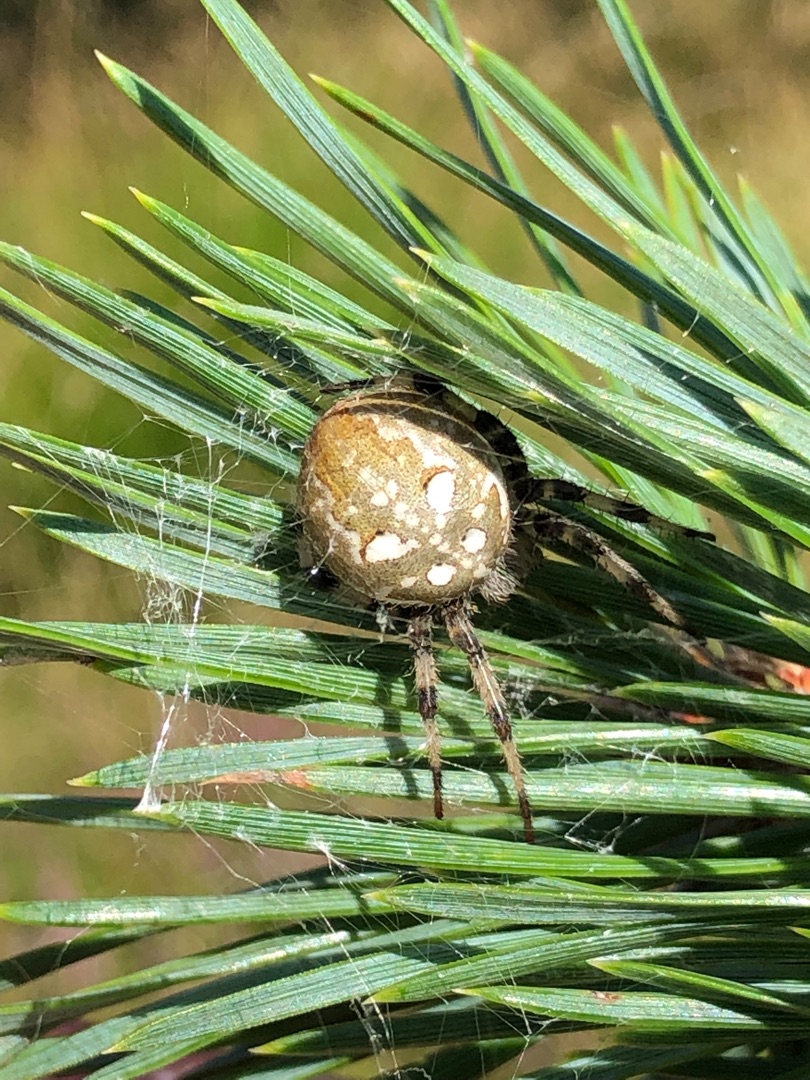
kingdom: Animalia
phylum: Arthropoda
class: Arachnida
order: Araneae
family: Araneidae
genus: Araneus
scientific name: Araneus quadratus
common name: Kvadratedderkop
